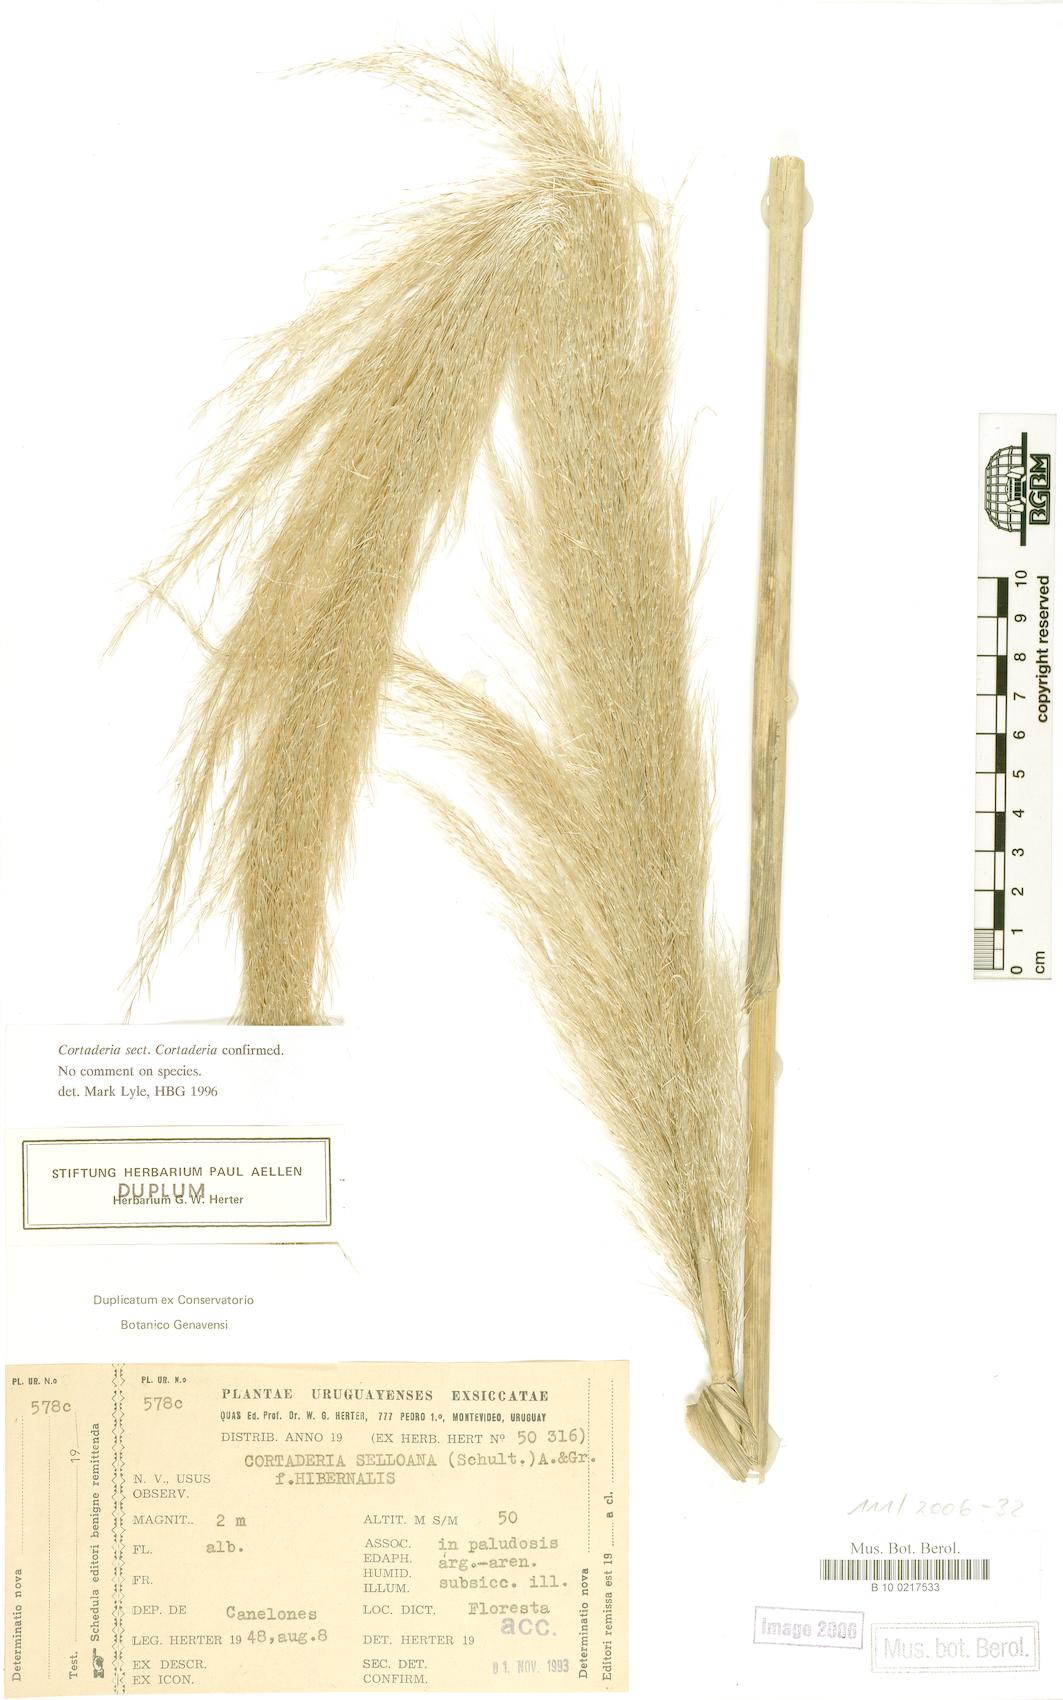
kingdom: Plantae
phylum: Tracheophyta
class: Liliopsida
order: Poales
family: Poaceae
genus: Cortaderia
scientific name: Cortaderia selloana
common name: Uruguayan pampas grass
